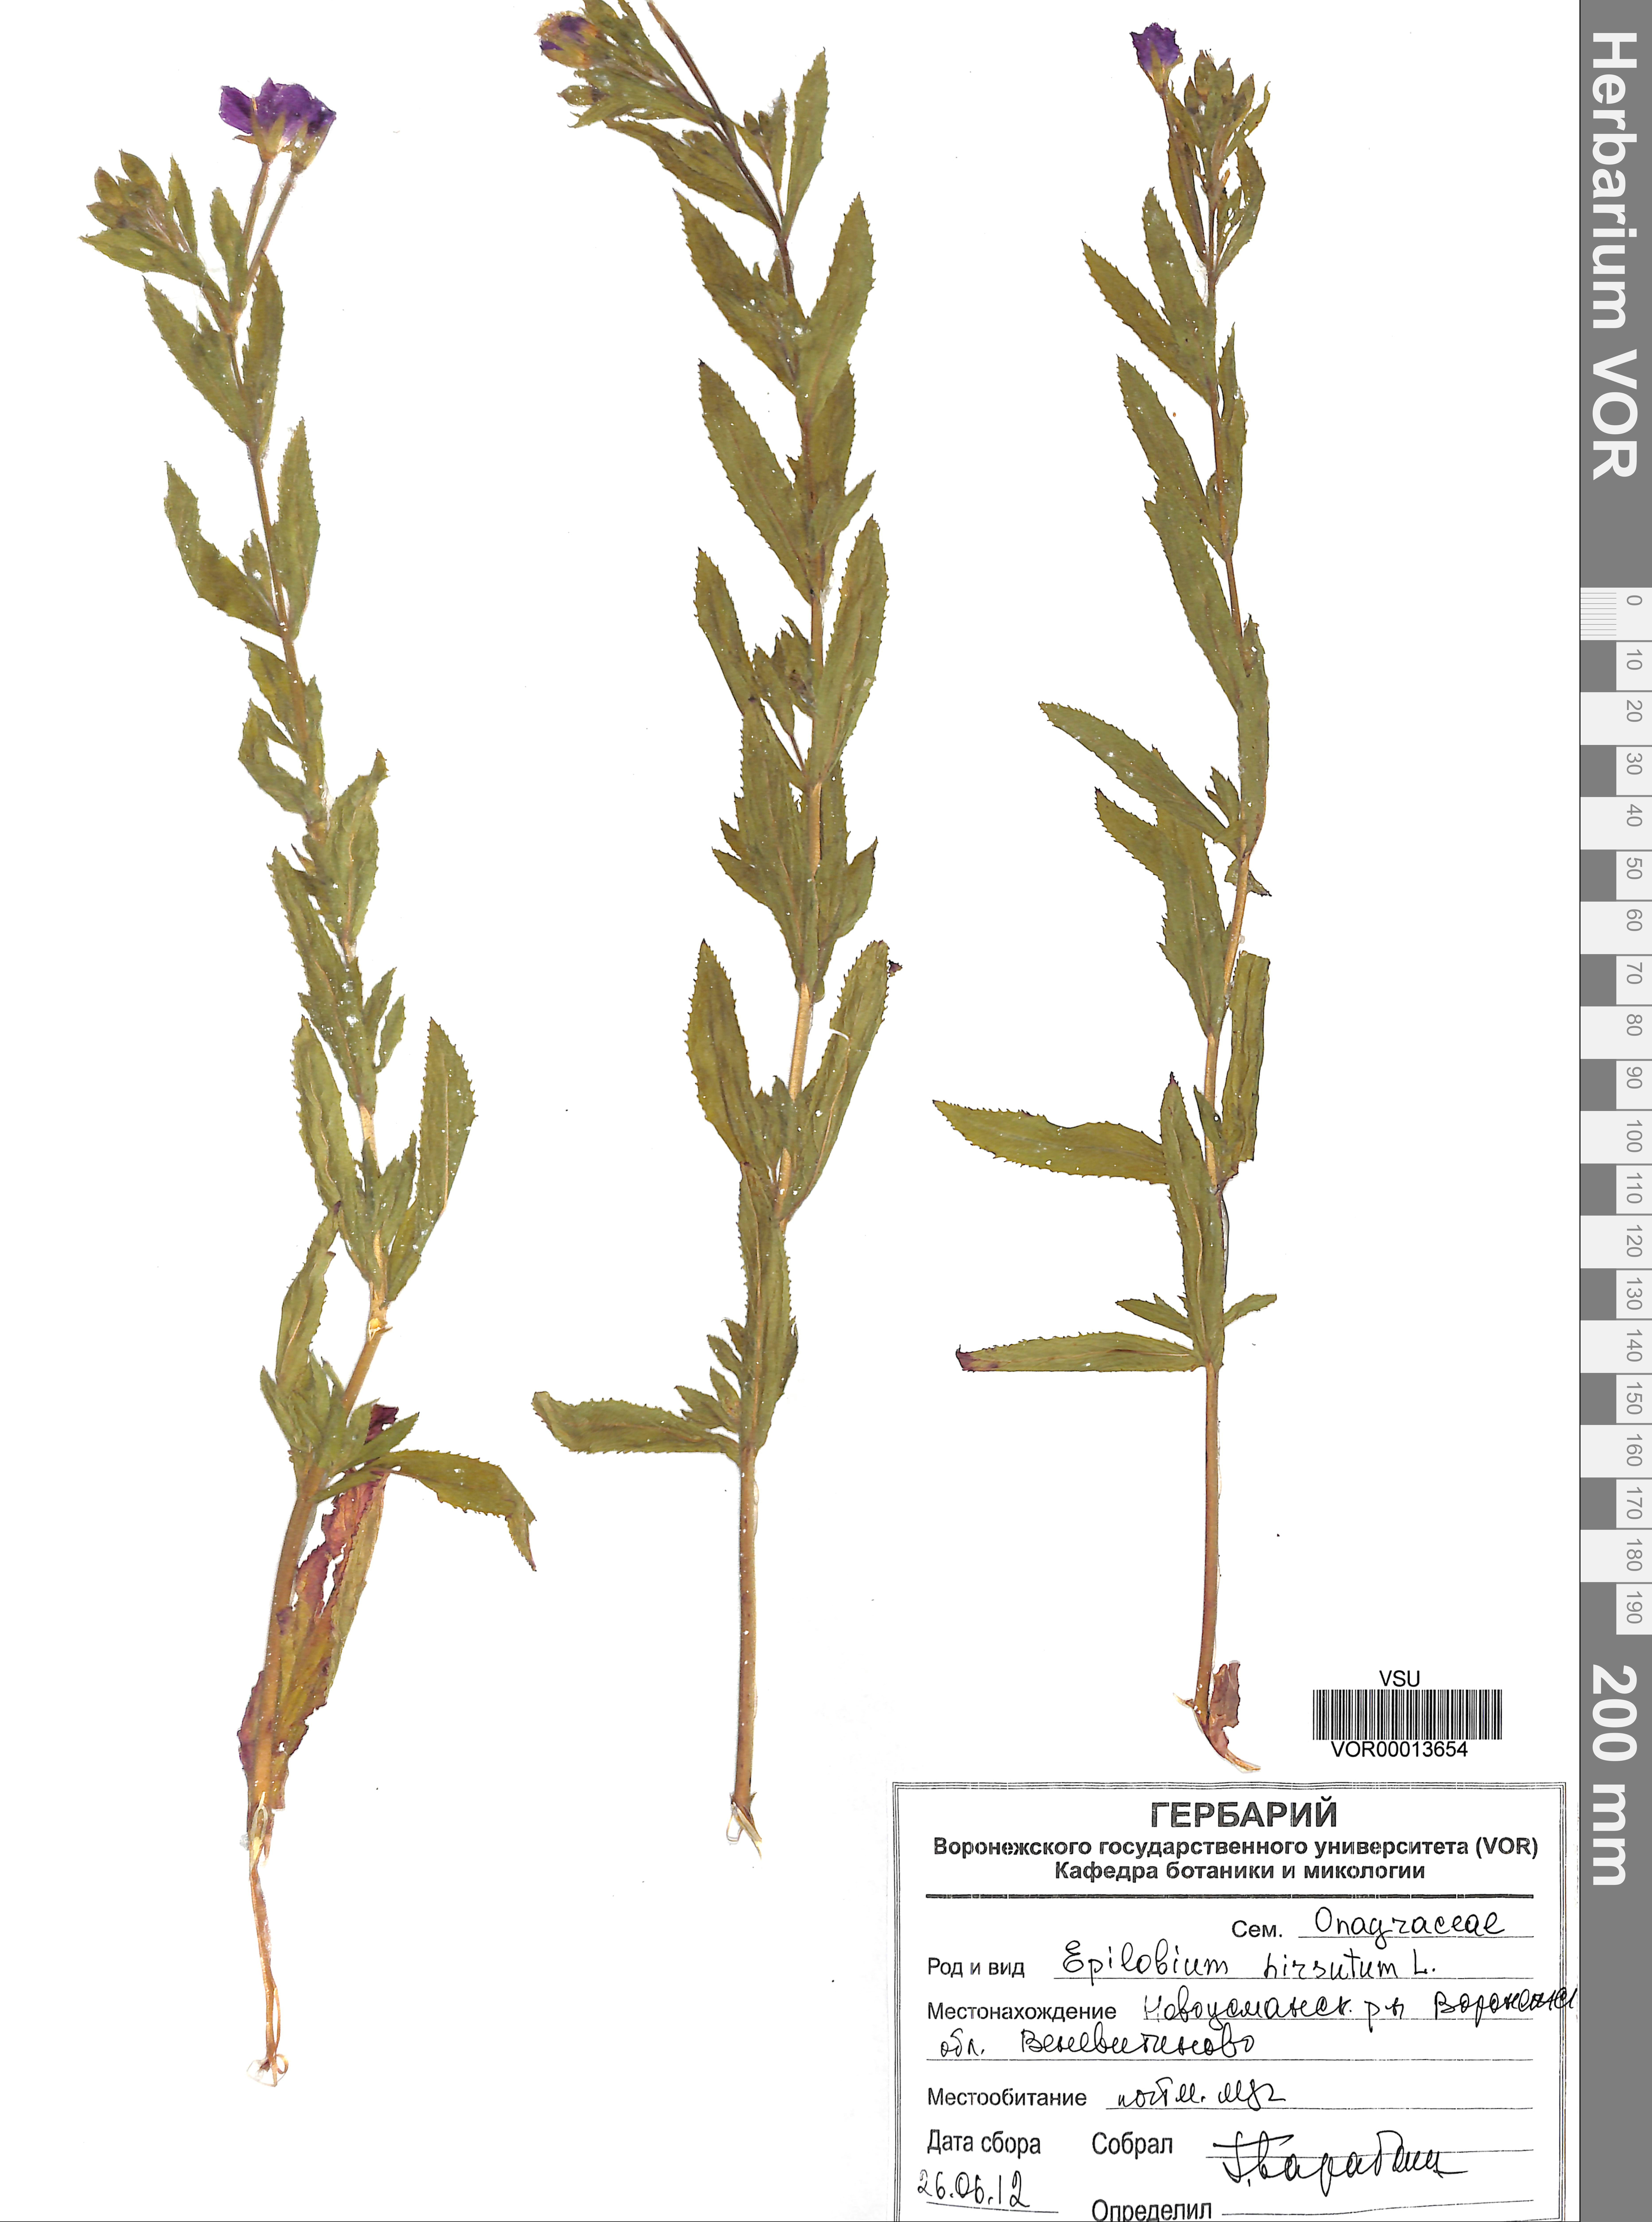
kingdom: Plantae
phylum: Tracheophyta
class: Magnoliopsida
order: Myrtales
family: Onagraceae
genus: Epilobium
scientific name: Epilobium hirsutum
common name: Great willowherb
